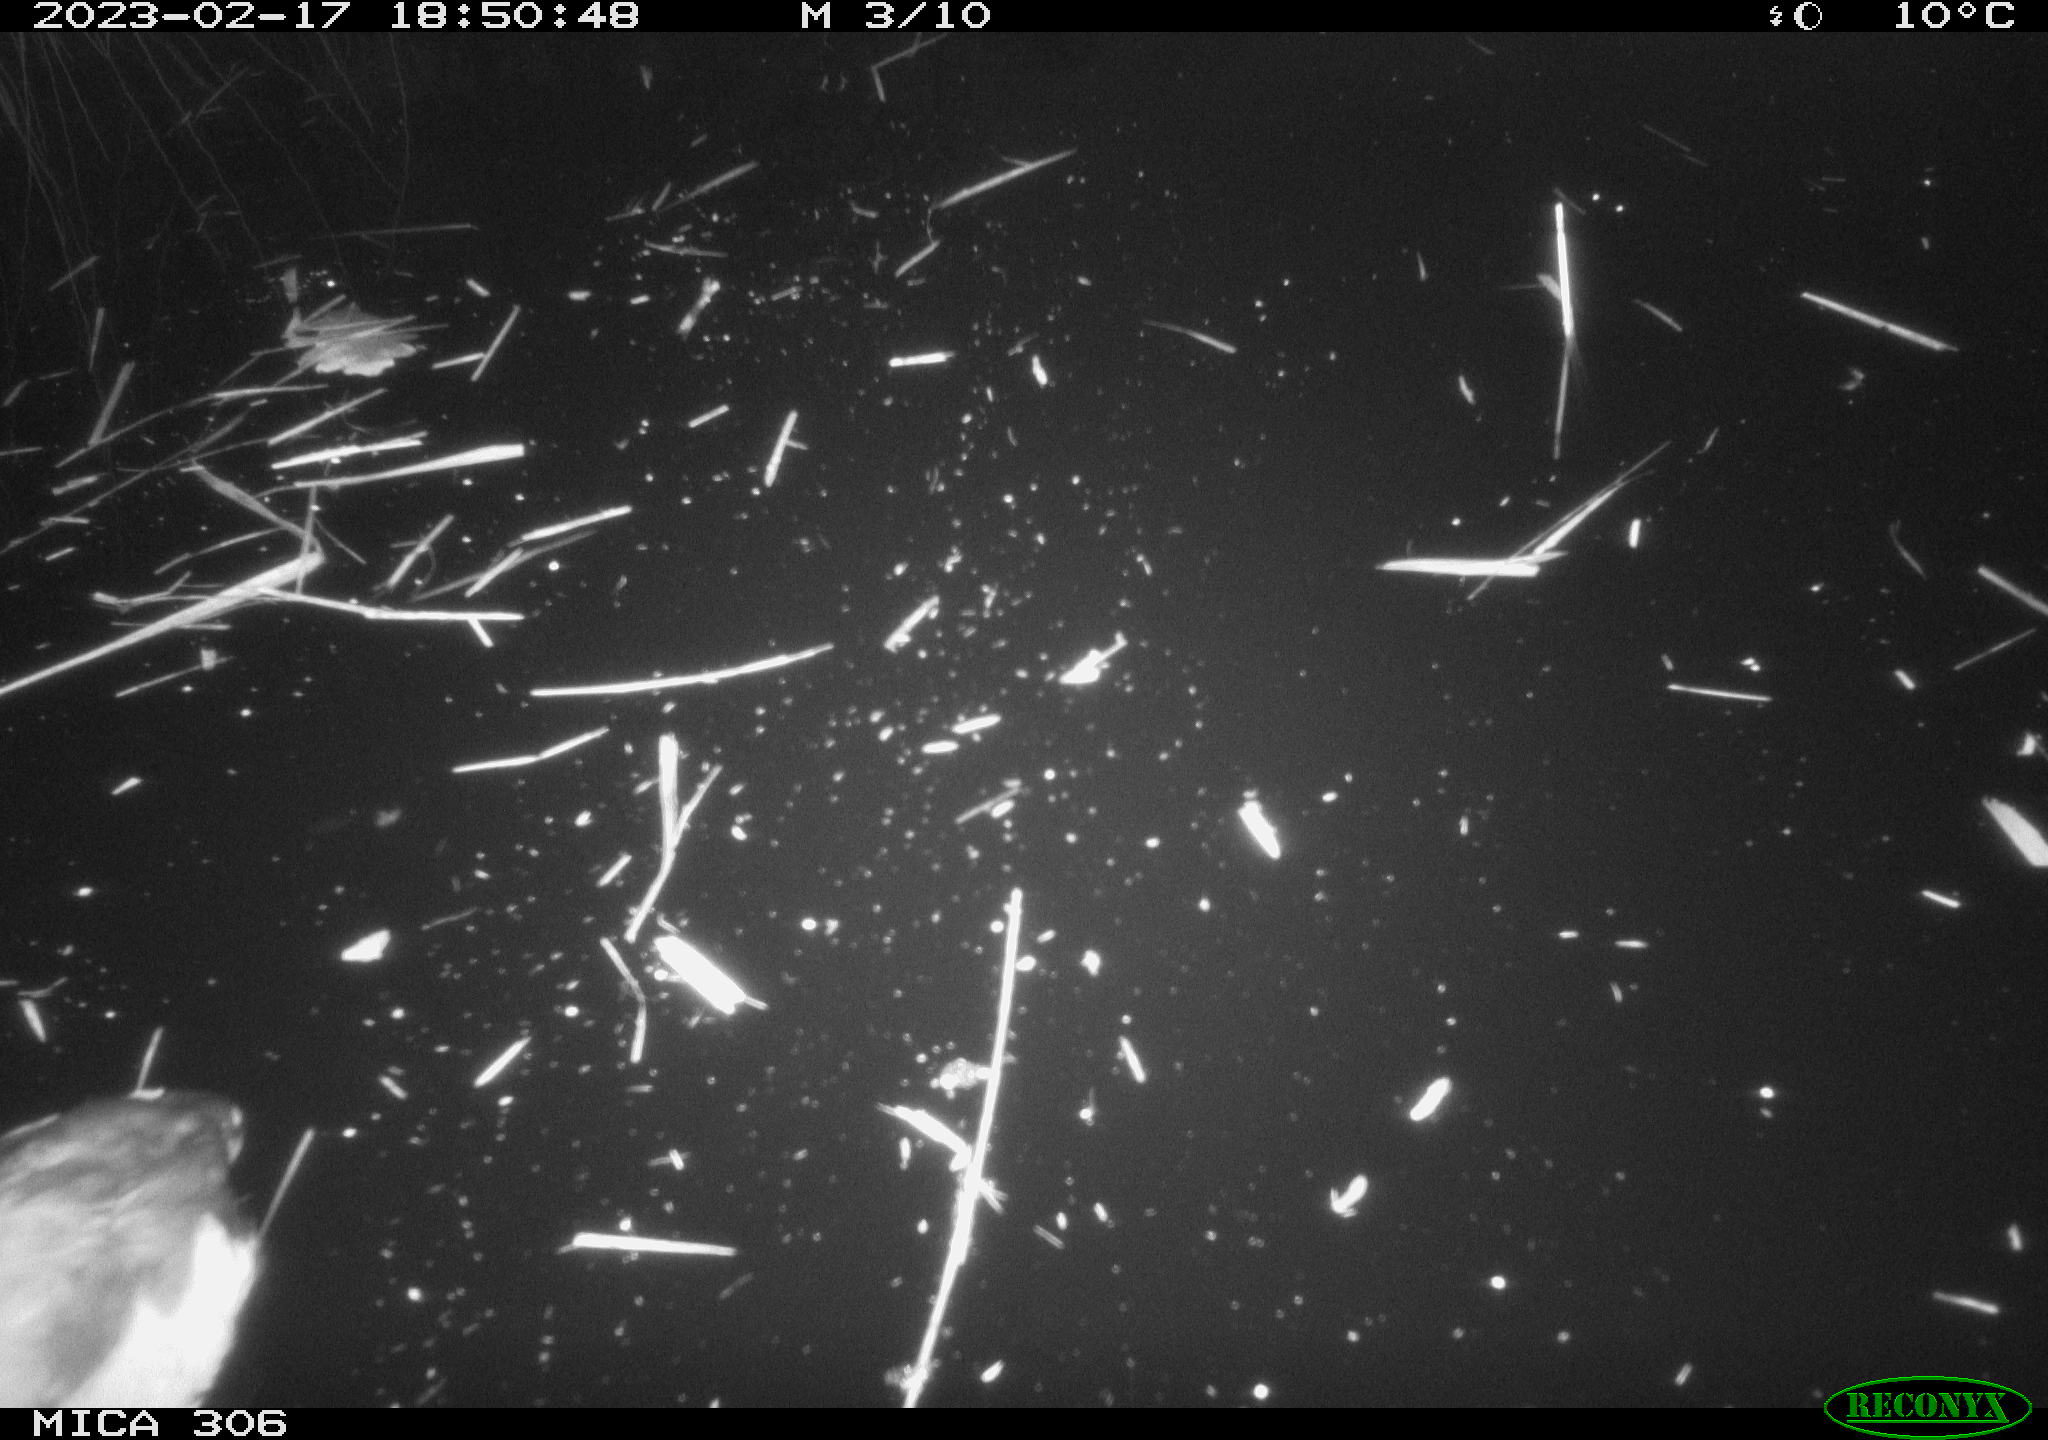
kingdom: Animalia
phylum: Chordata
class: Aves
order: Gruiformes
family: Rallidae
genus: Fulica
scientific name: Fulica atra
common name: Eurasian coot
